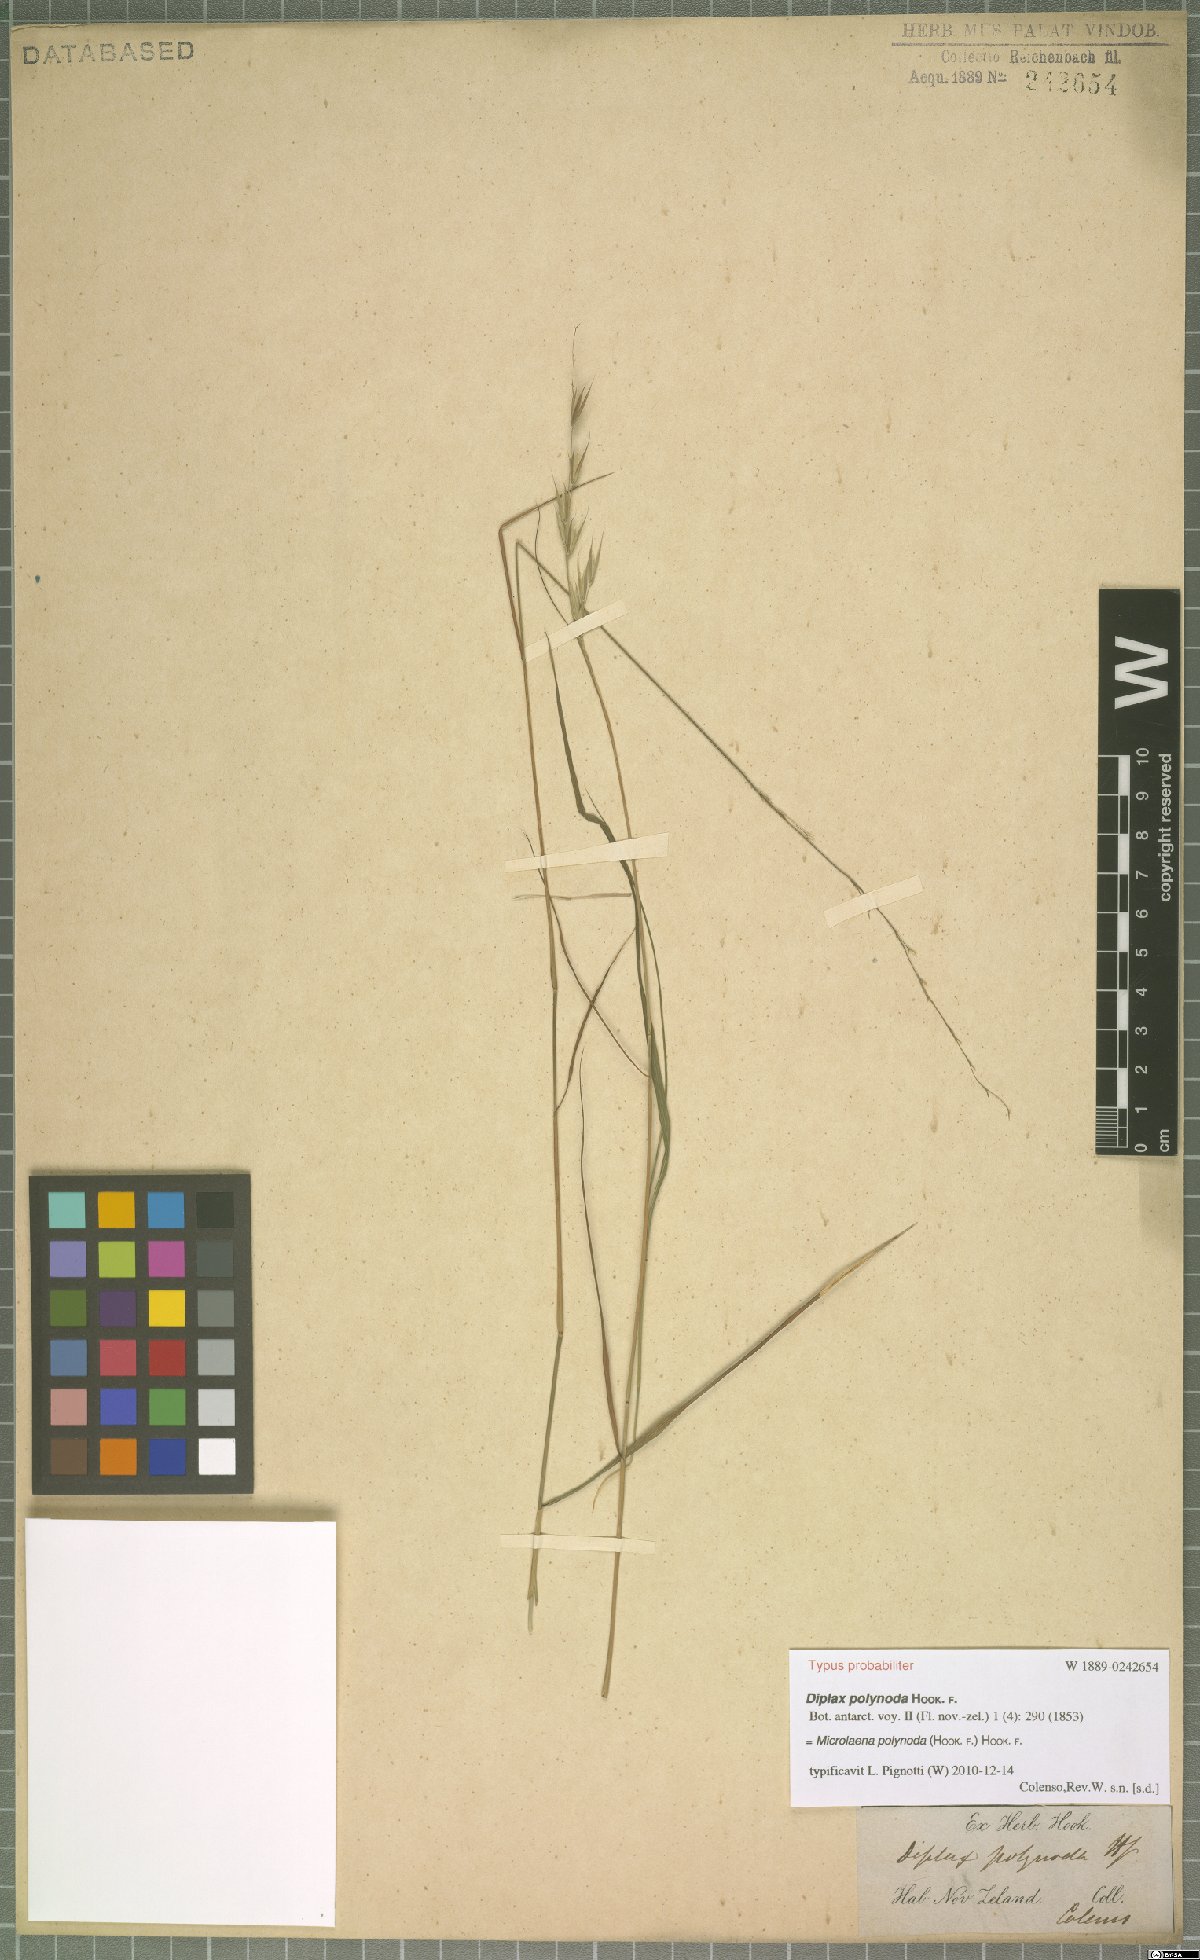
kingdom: Plantae
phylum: Tracheophyta
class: Liliopsida
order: Poales
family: Poaceae
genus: Microlaena
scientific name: Microlaena polynoda
